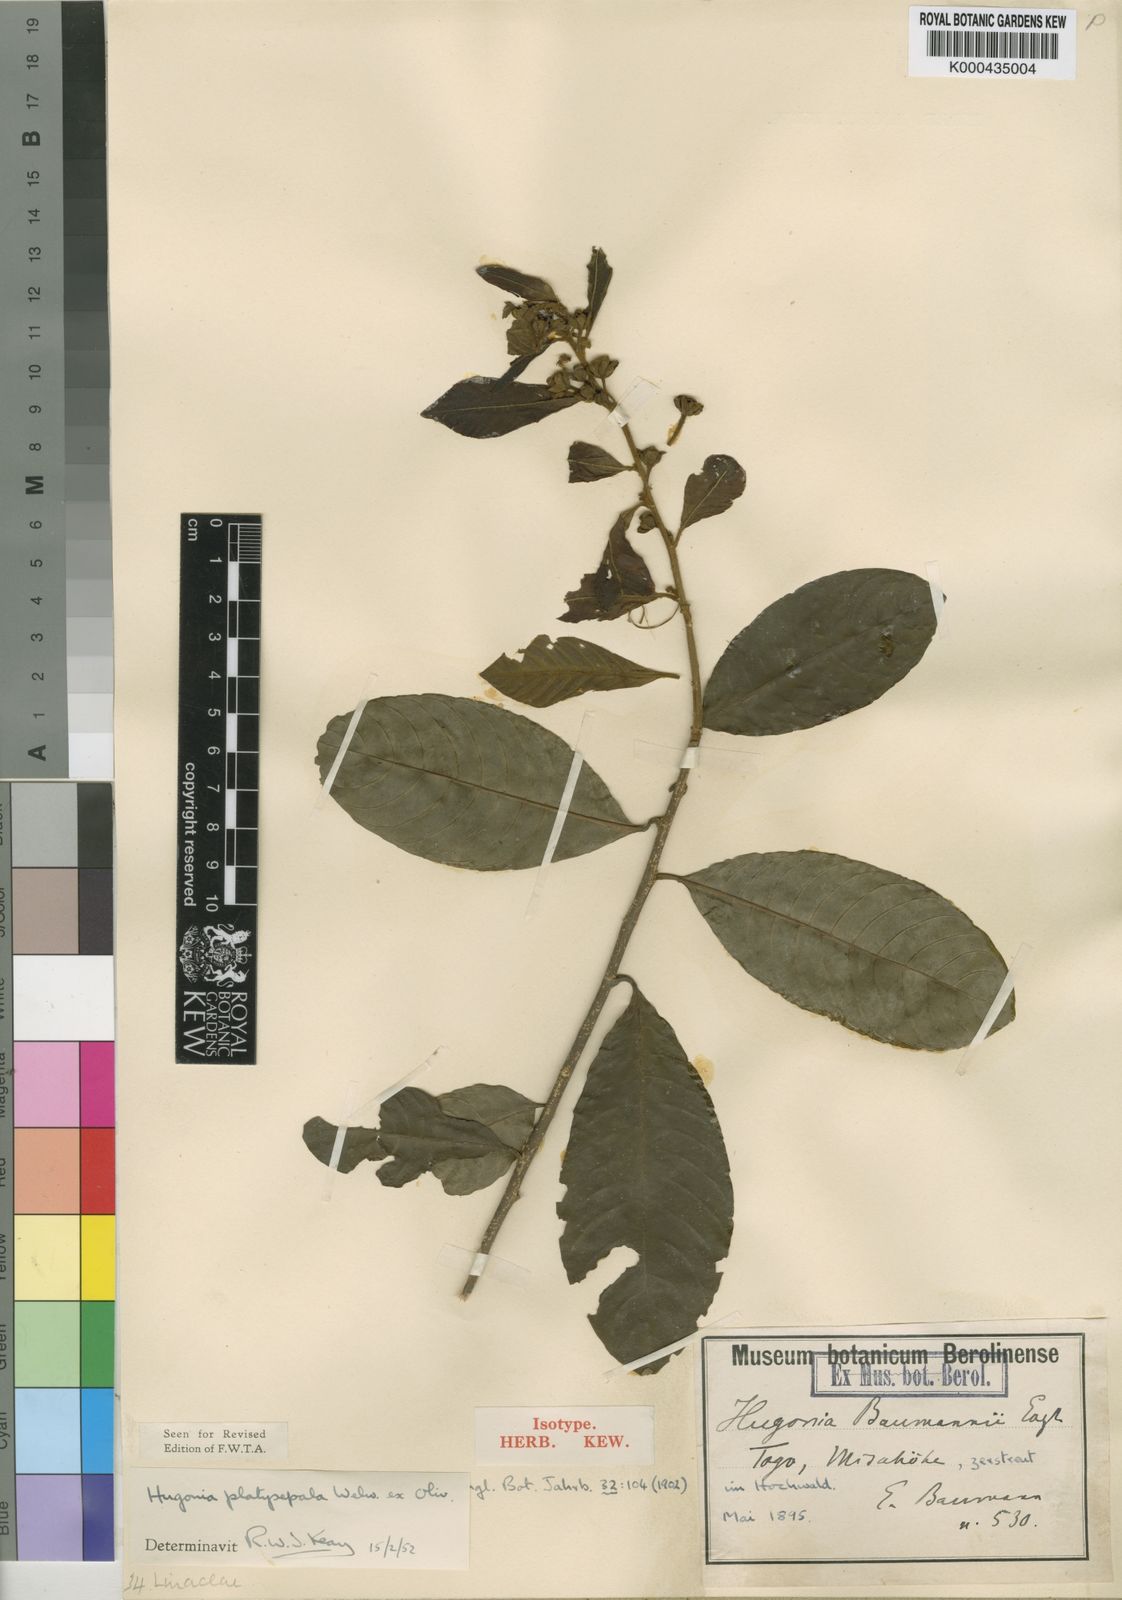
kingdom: Plantae
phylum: Tracheophyta
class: Magnoliopsida
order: Malpighiales
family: Linaceae
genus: Hugonia
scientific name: Hugonia platysepala
